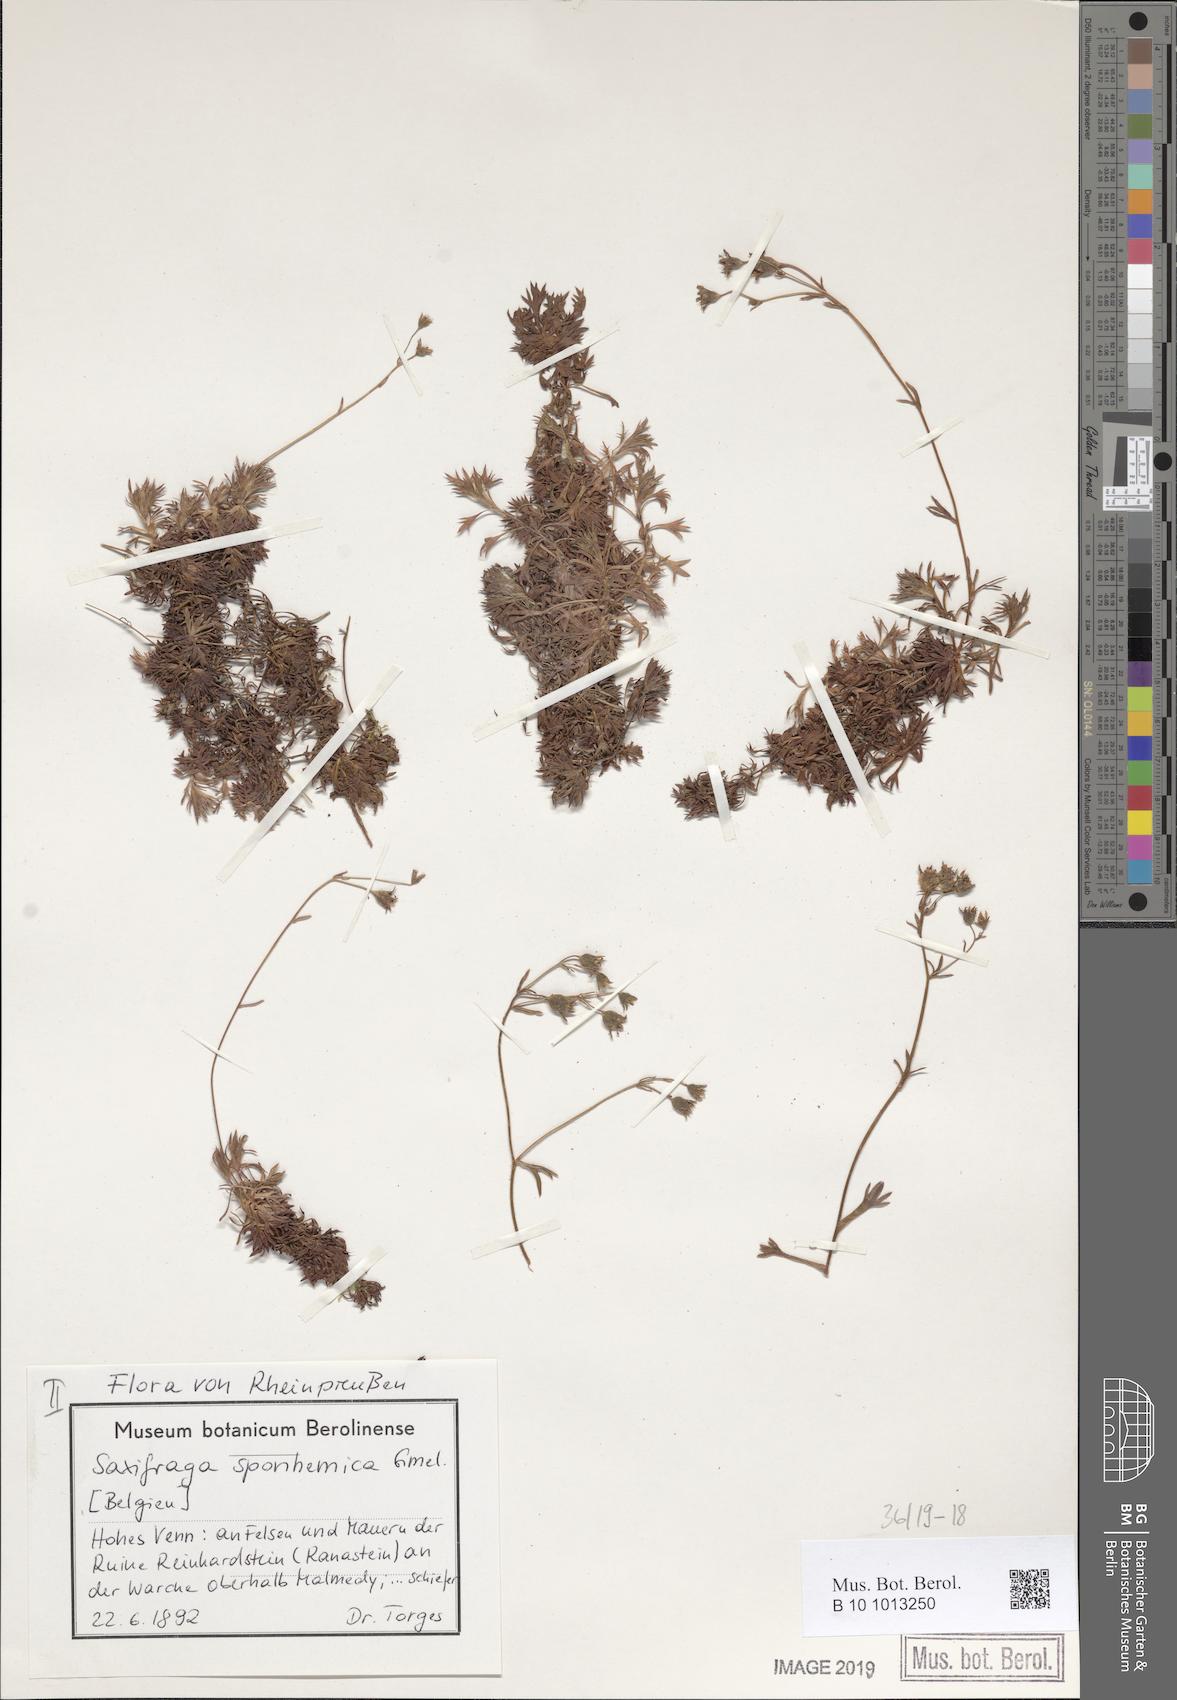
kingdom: Plantae
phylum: Tracheophyta
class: Magnoliopsida
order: Saxifragales
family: Saxifragaceae
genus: Saxifraga
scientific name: Saxifraga rosacea
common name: Irish saxifrage
